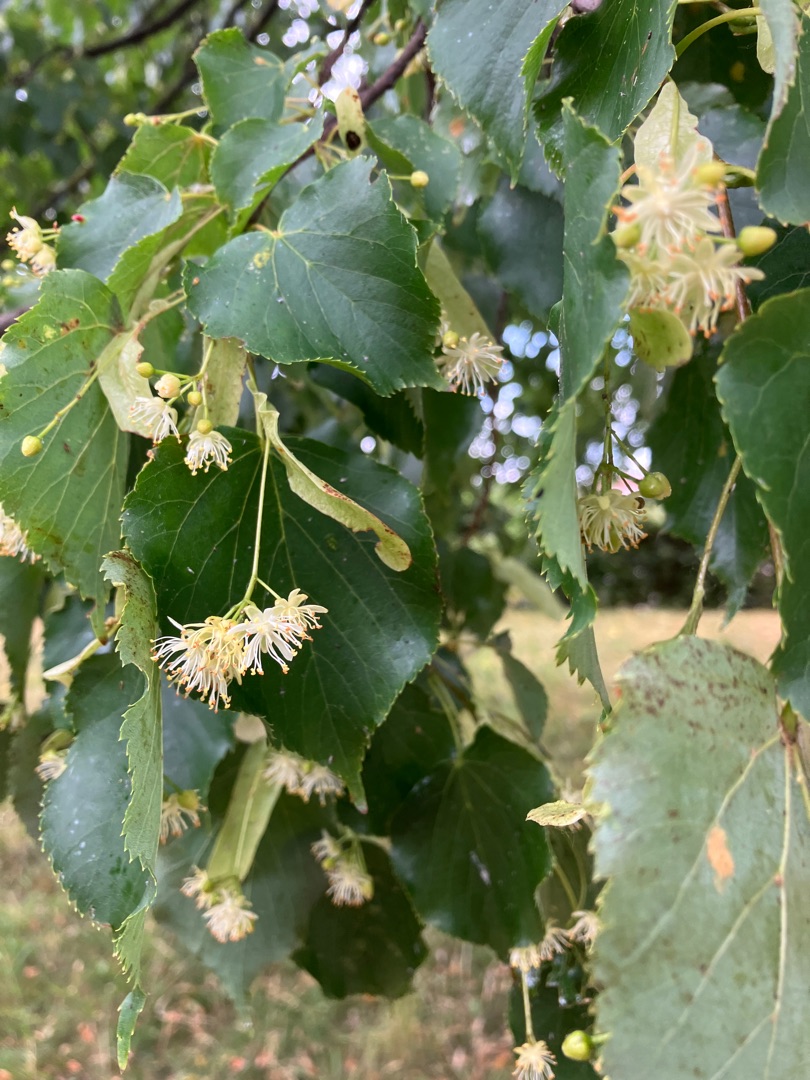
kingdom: Plantae
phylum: Tracheophyta
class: Magnoliopsida
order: Malvales
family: Malvaceae
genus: Tilia
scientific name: Tilia cordata
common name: Småbladet lind
